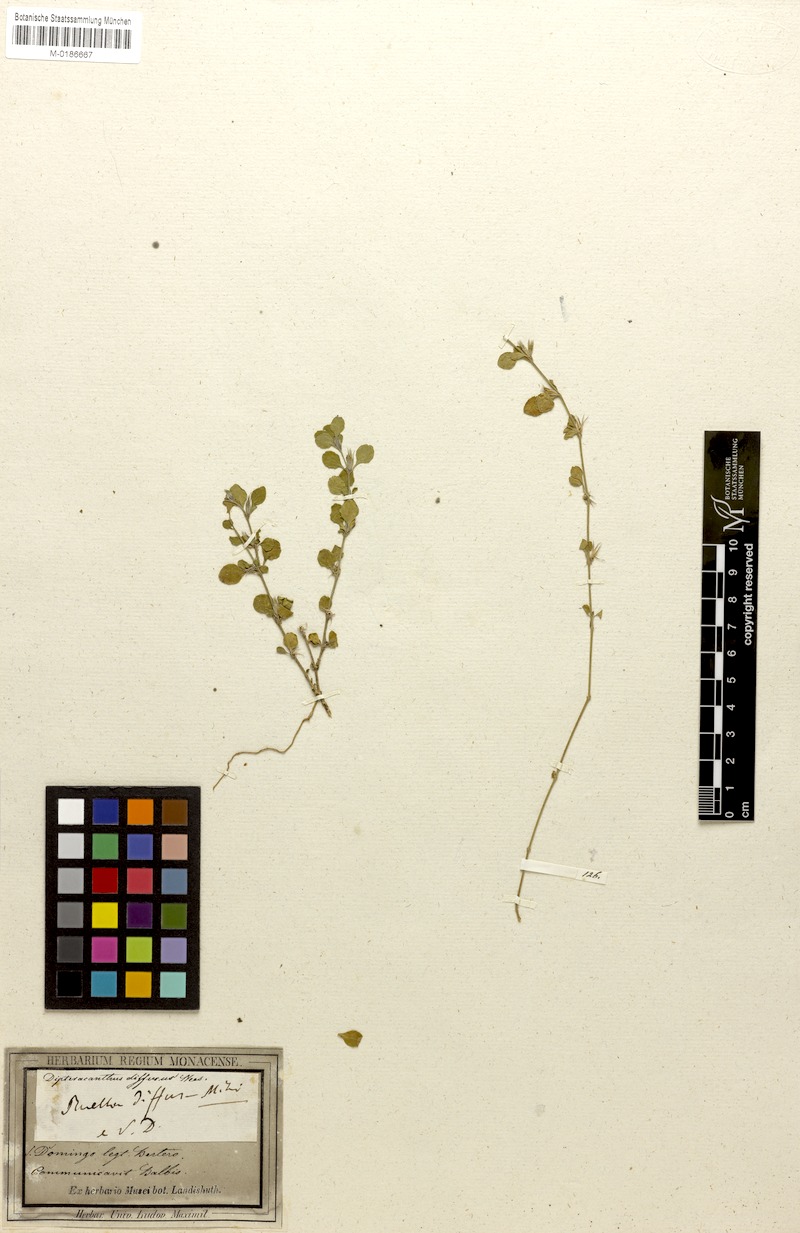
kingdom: Plantae
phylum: Tracheophyta
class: Magnoliopsida
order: Lamiales
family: Acanthaceae
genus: Dyschoriste
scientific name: Dyschoriste humistrata
